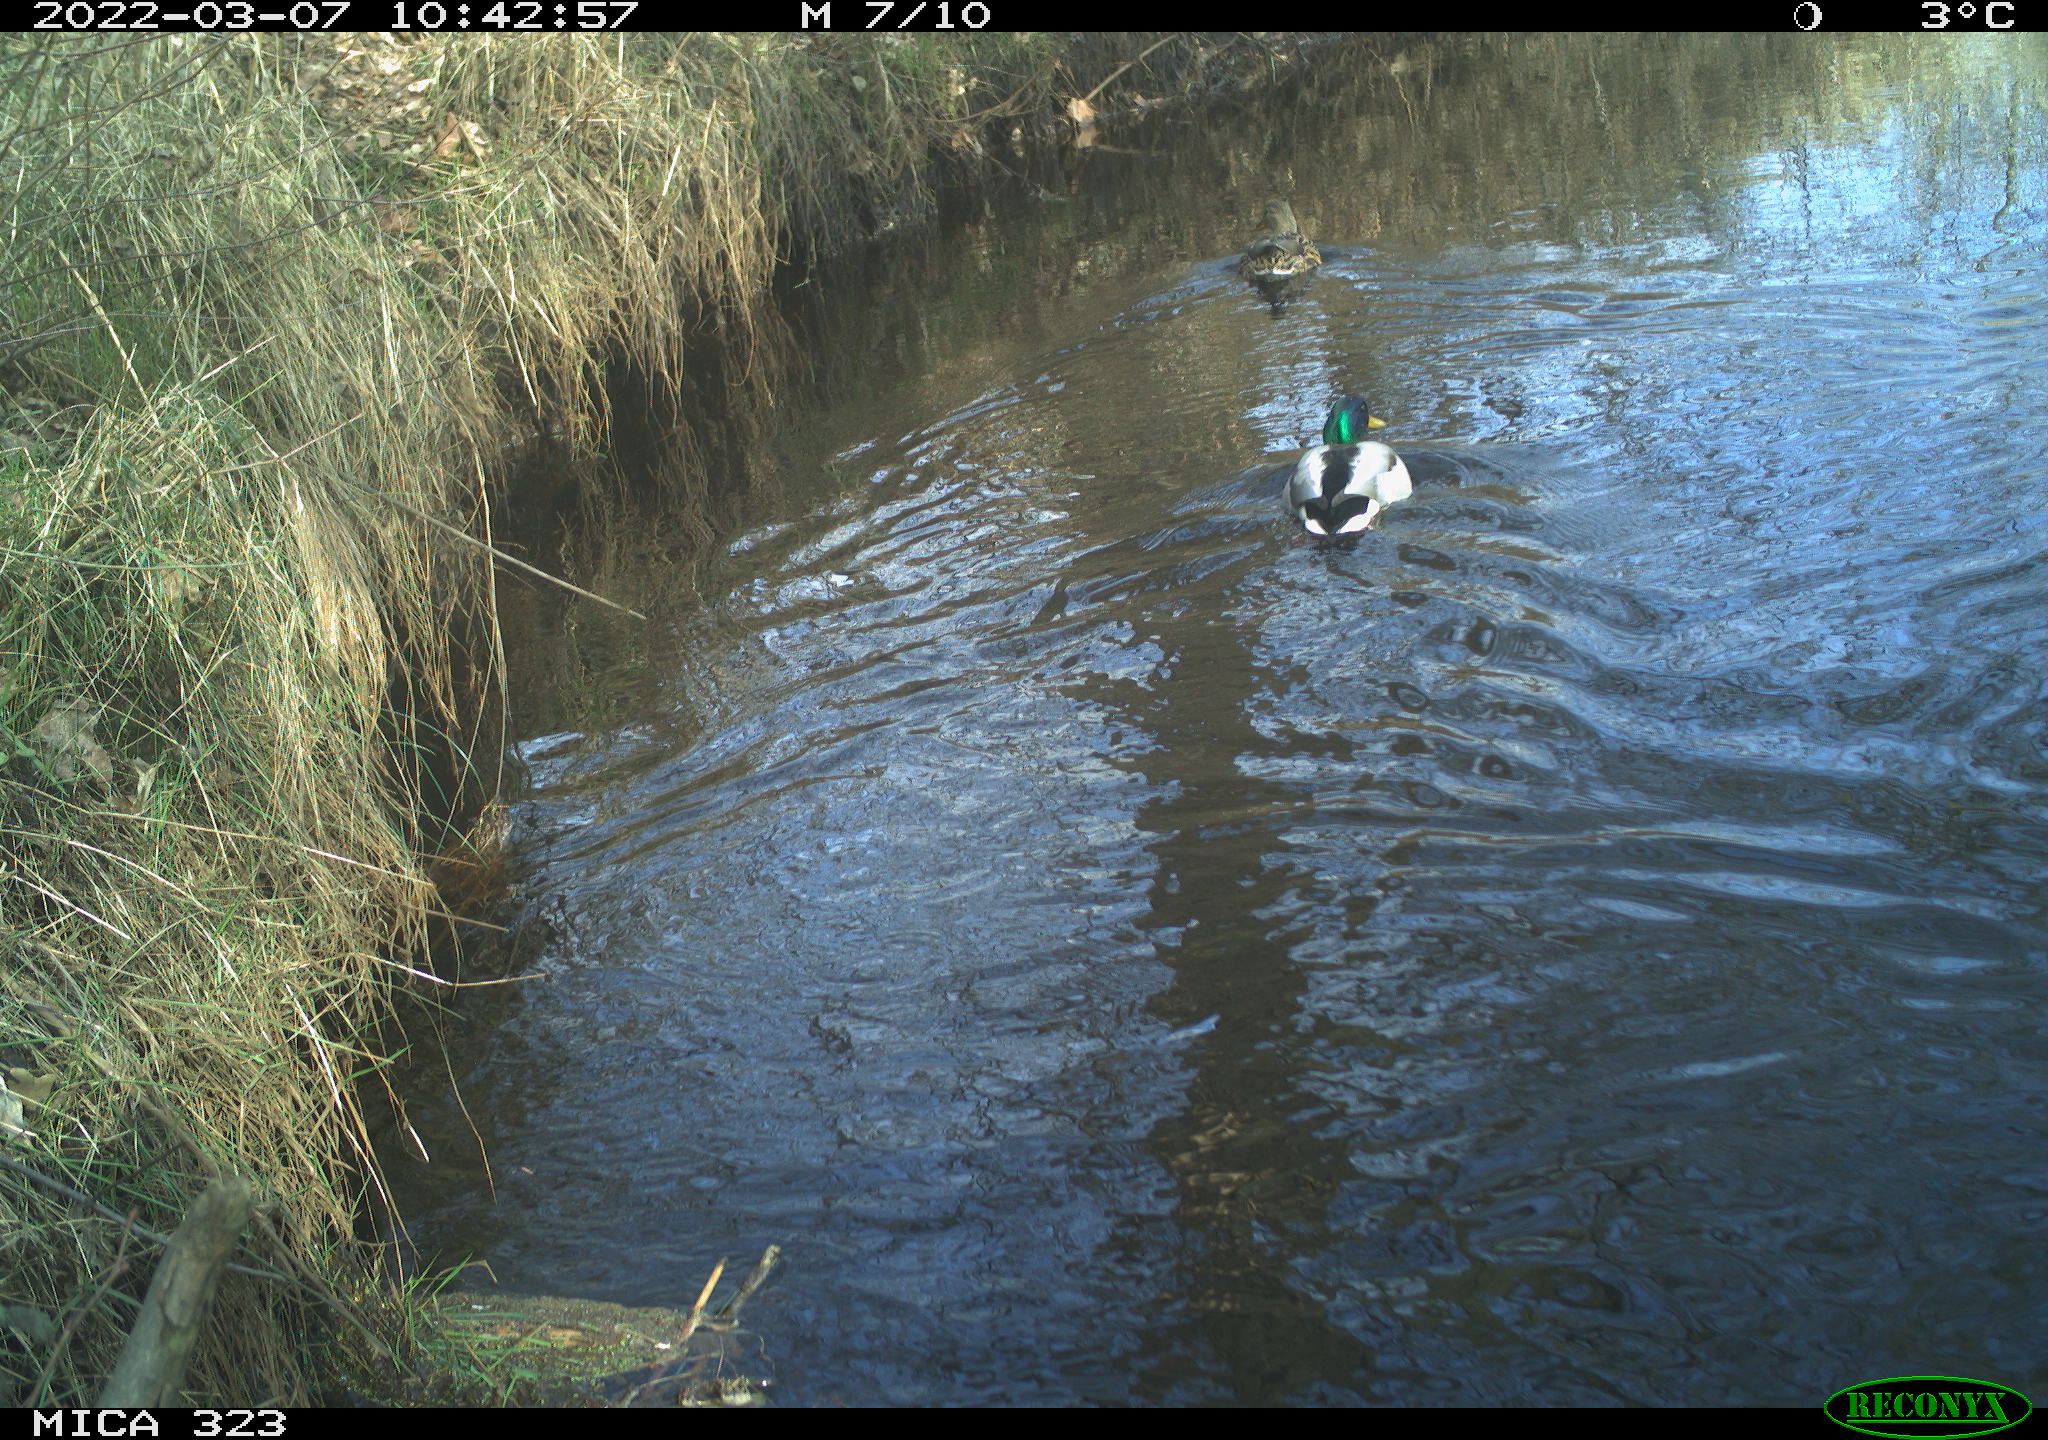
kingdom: Animalia
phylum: Chordata
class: Aves
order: Anseriformes
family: Anatidae
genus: Anas
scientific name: Anas platyrhynchos
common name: Mallard
